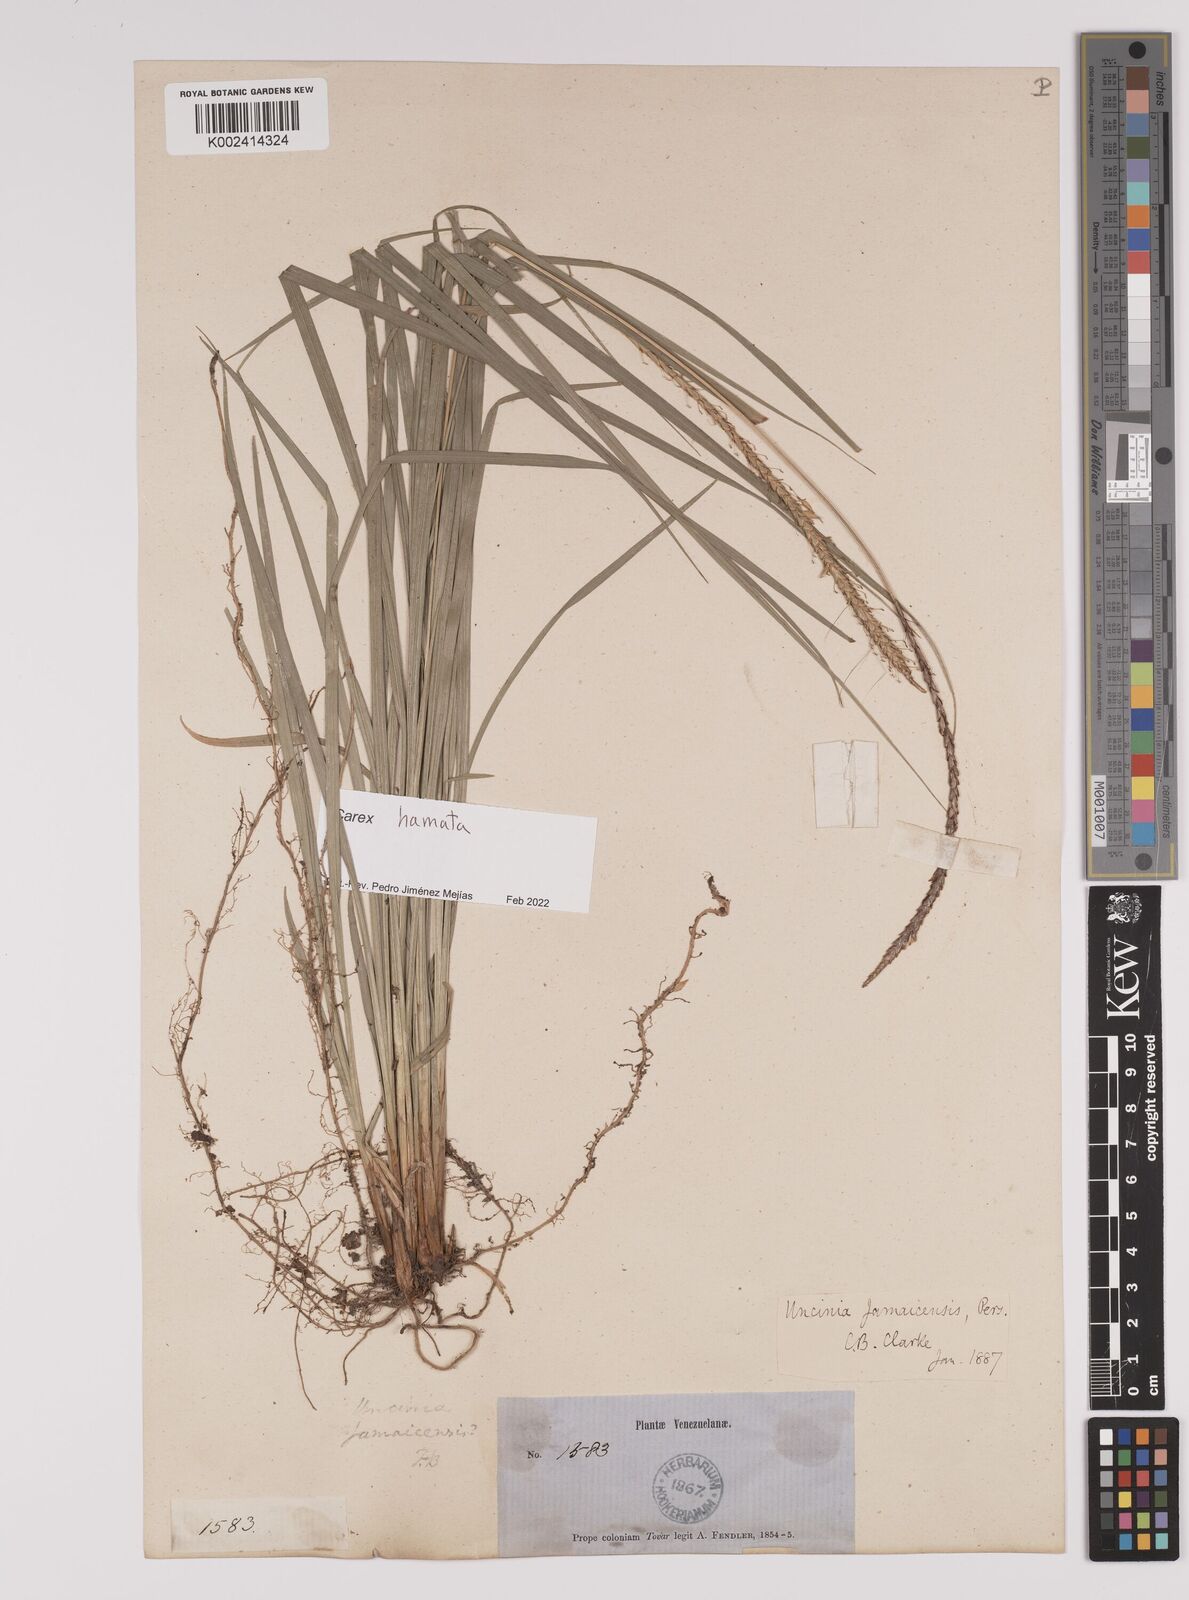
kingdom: Plantae
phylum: Tracheophyta
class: Liliopsida
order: Poales
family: Cyperaceae
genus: Carex
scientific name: Carex hamata
